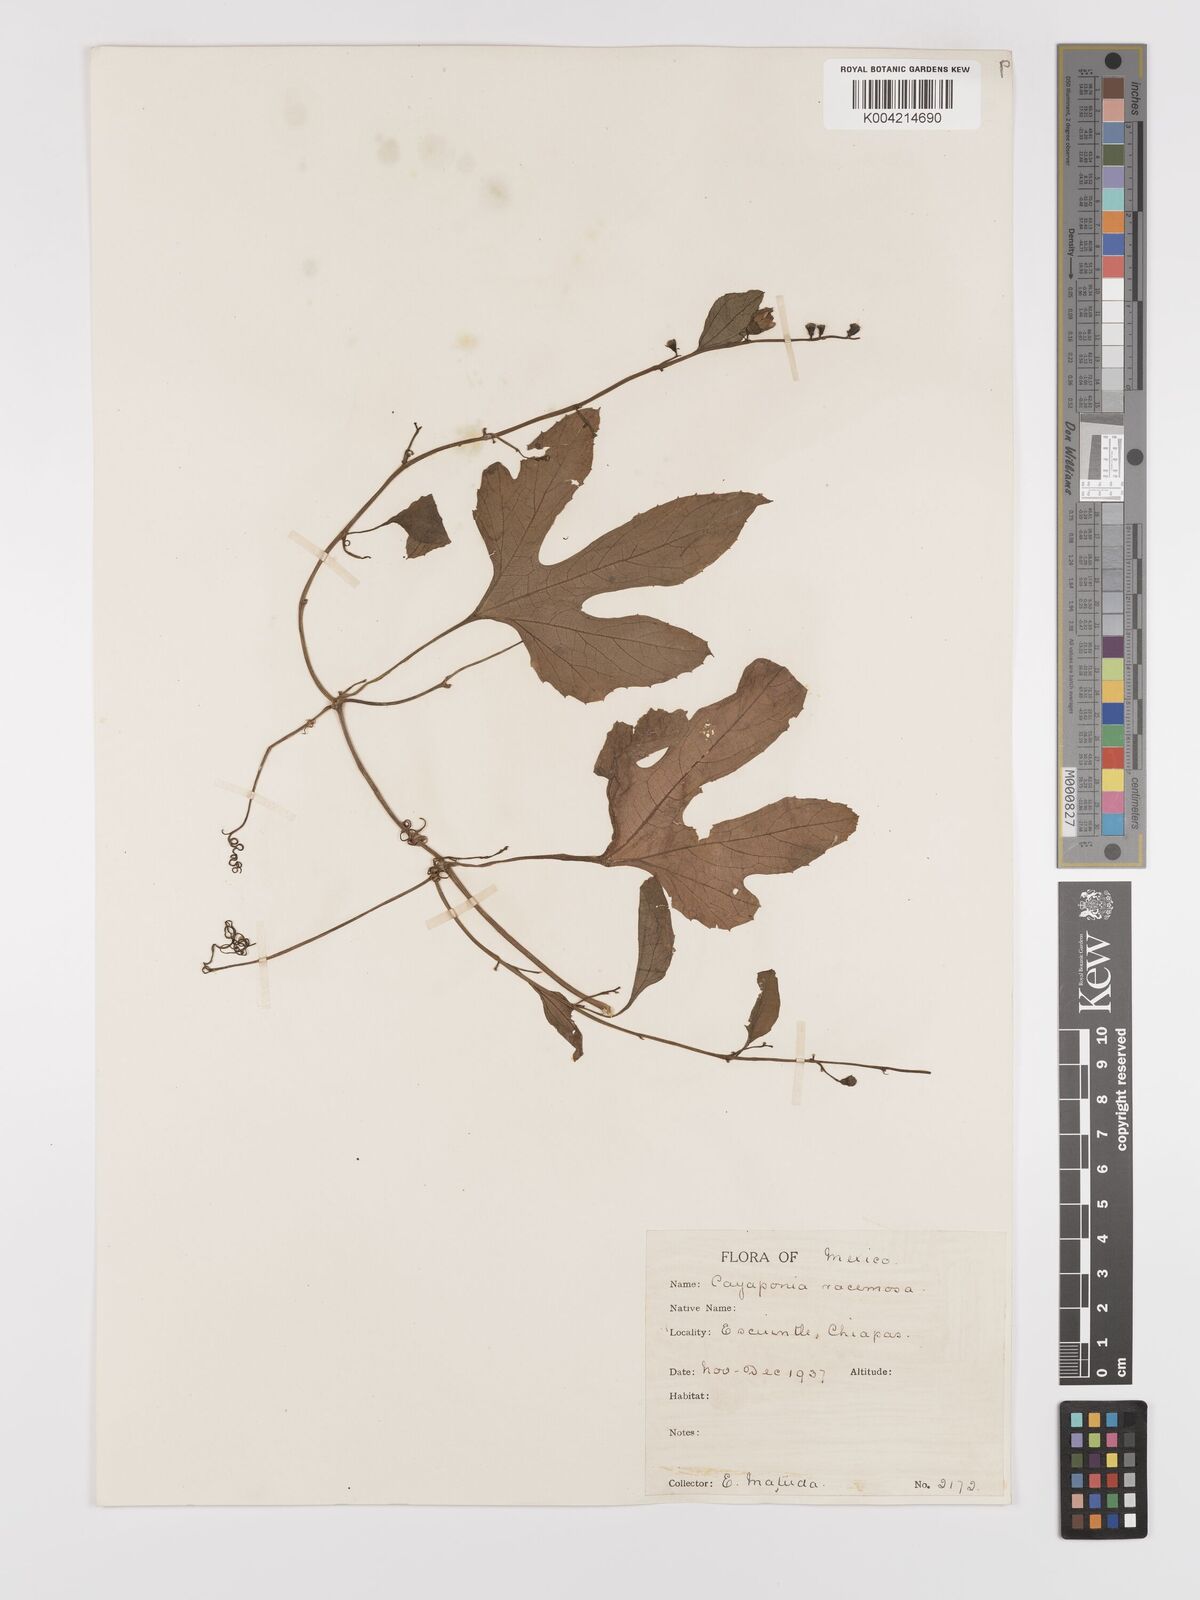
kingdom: Plantae
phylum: Tracheophyta
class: Magnoliopsida
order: Cucurbitales
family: Cucurbitaceae
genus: Cayaponia
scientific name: Cayaponia racemosa
